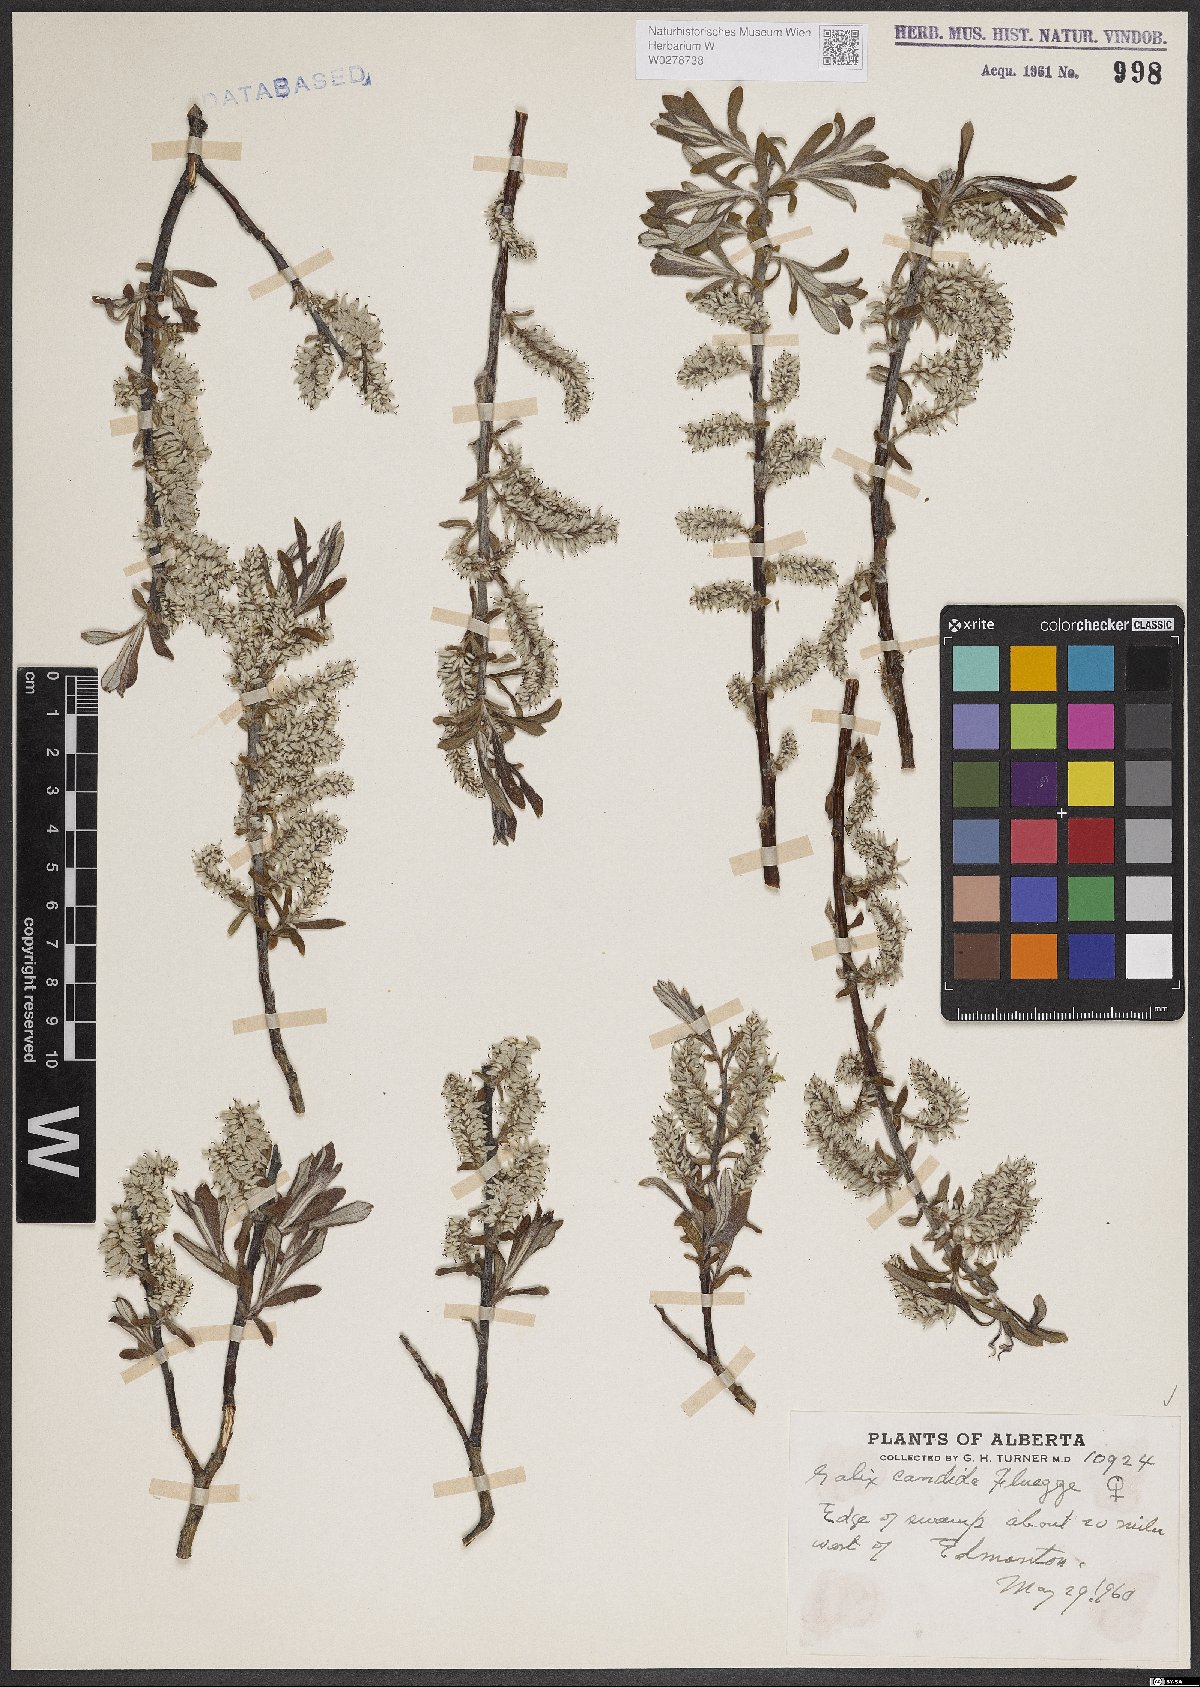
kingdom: Plantae
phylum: Tracheophyta
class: Magnoliopsida
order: Malpighiales
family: Salicaceae
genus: Salix
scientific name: Salix candida
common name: Hoary willow
